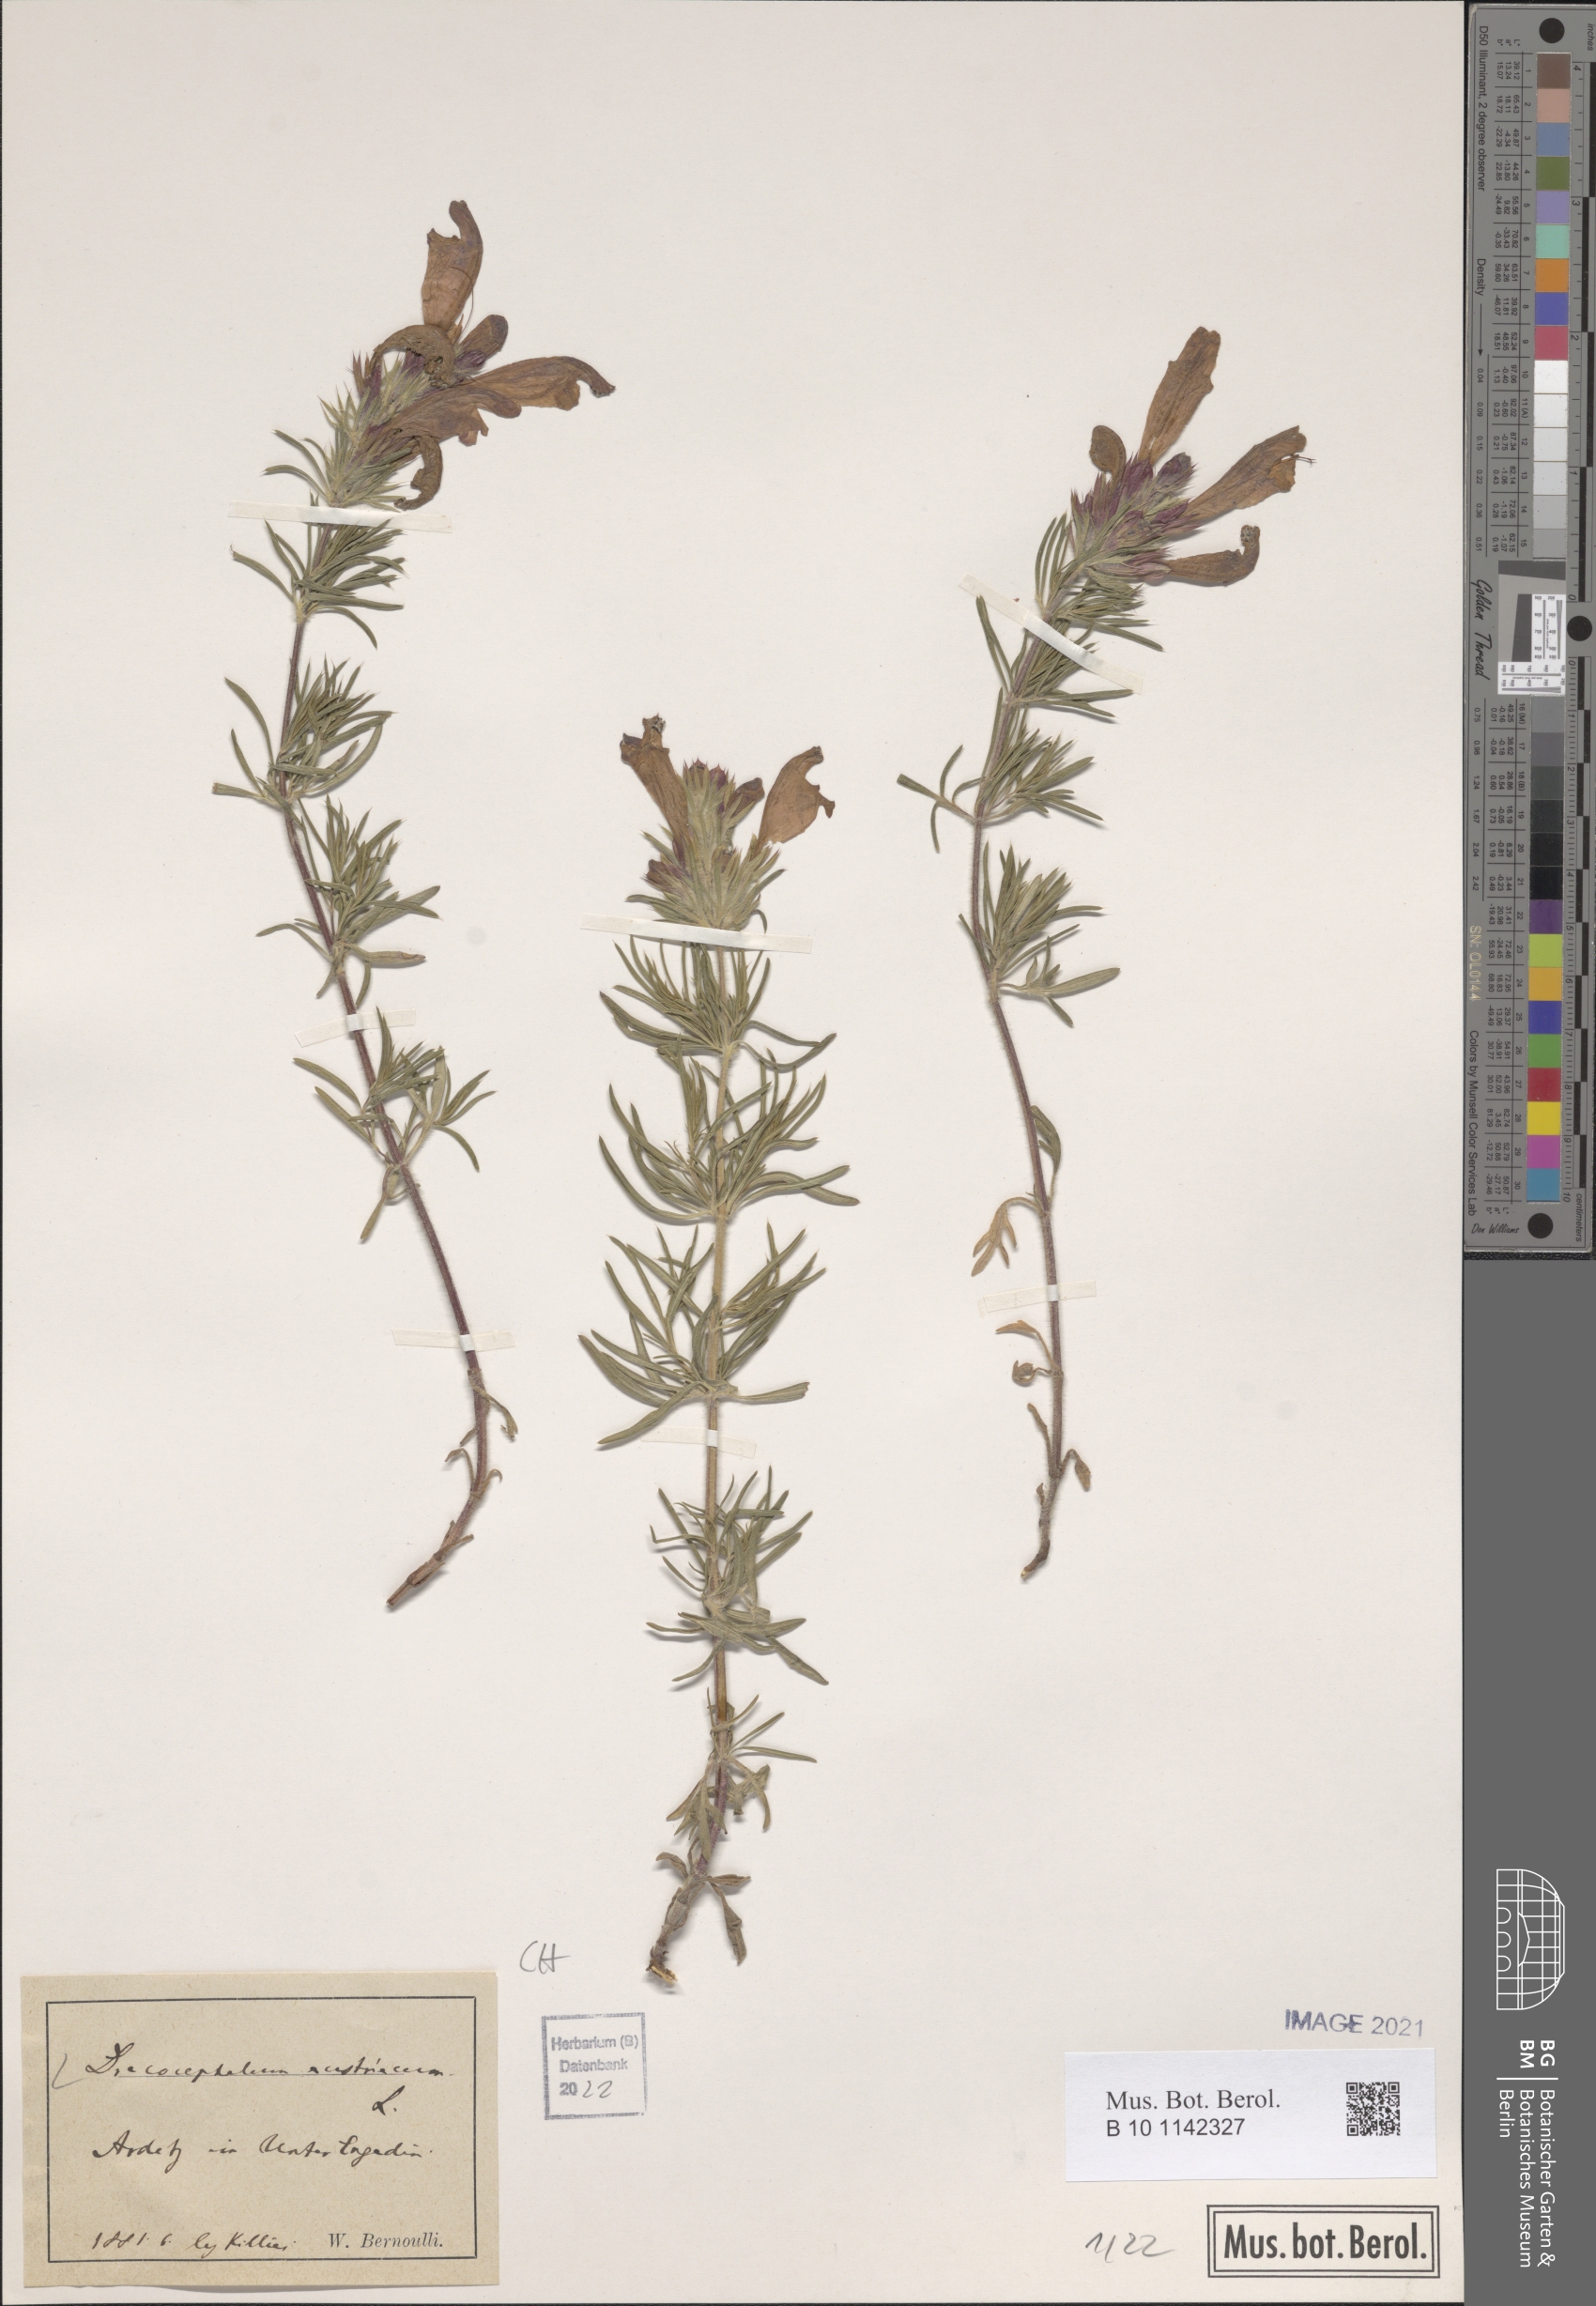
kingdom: Plantae
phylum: Tracheophyta
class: Magnoliopsida
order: Lamiales
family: Lamiaceae
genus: Dracocephalum
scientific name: Dracocephalum austriacum
